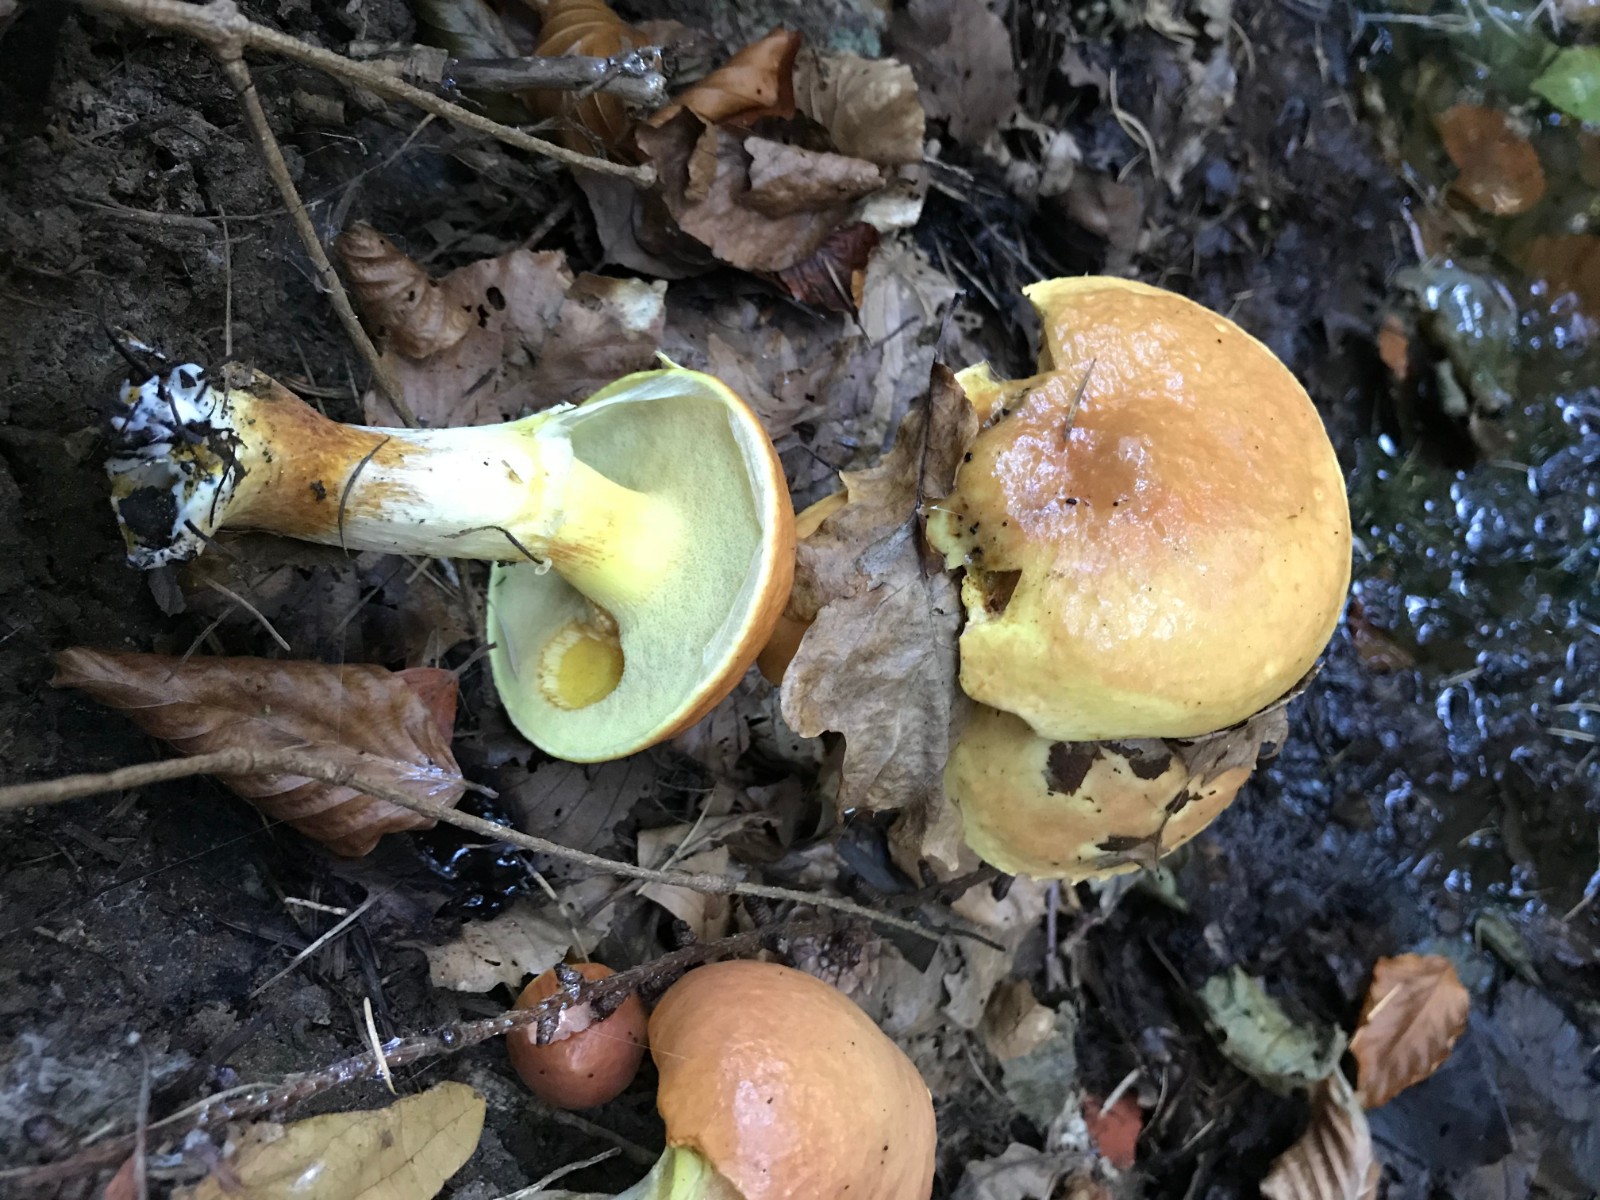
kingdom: Fungi
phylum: Basidiomycota
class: Agaricomycetes
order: Boletales
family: Suillaceae
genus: Suillus
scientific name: Suillus grevillei
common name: lærke-slimrørhat
